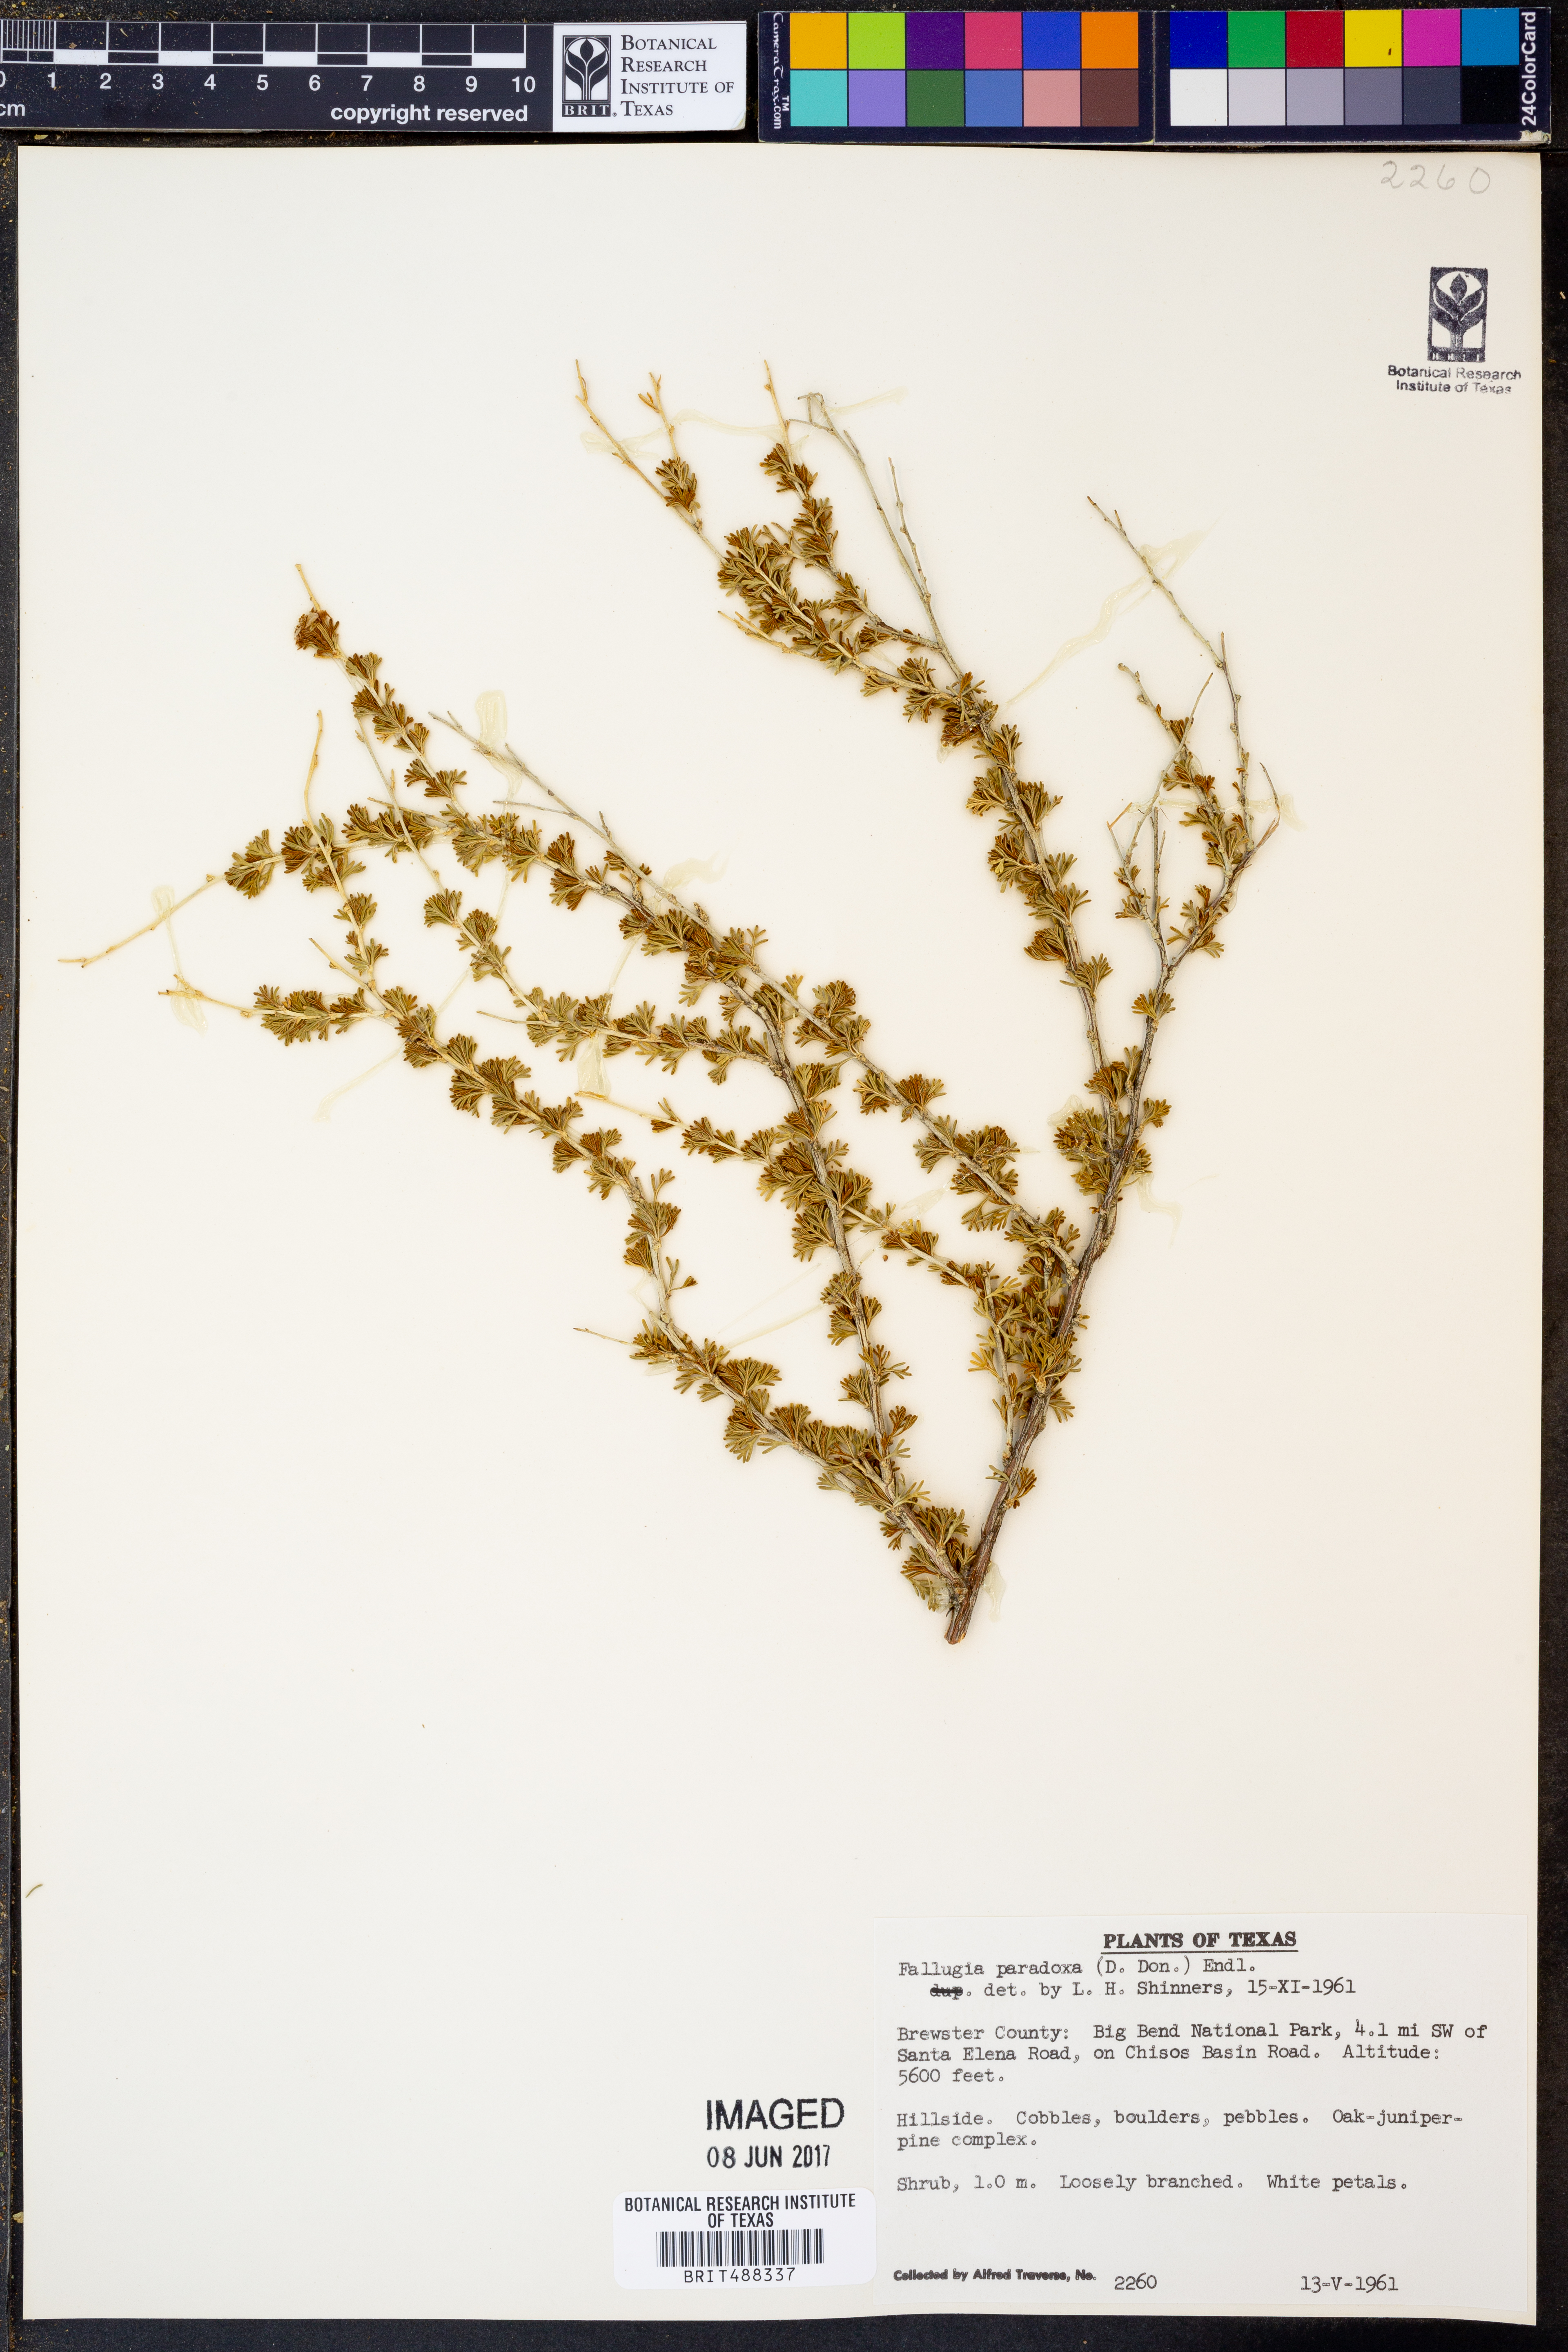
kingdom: Plantae
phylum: Tracheophyta
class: Magnoliopsida
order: Rosales
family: Rosaceae
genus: Fallugia
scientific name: Fallugia paradoxa
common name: Apache-plume
